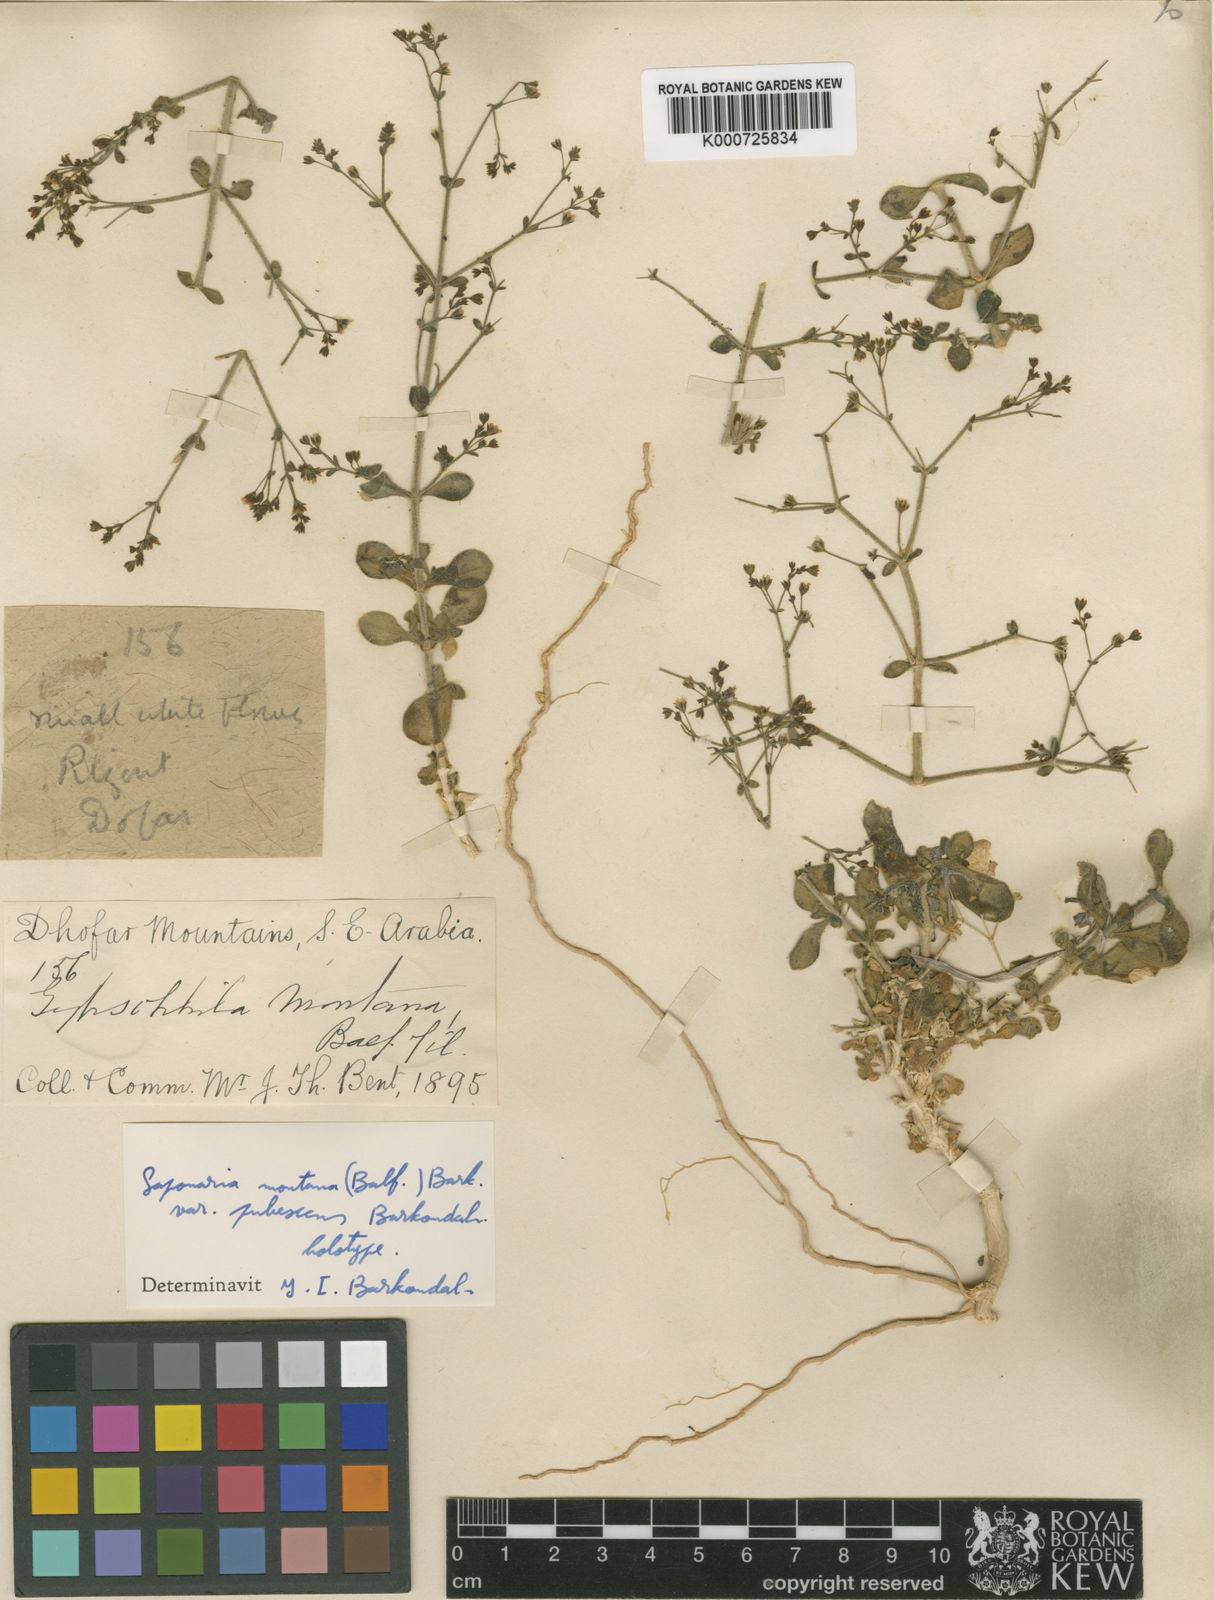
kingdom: Plantae
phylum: Tracheophyta
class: Magnoliopsida
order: Caryophyllales
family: Caryophyllaceae
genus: Petroana
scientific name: Petroana montana
